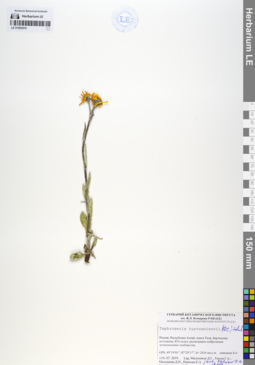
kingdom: Plantae
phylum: Tracheophyta
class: Magnoliopsida
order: Asterales
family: Asteraceae
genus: Tephroseris
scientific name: Tephroseris turczaninovii
